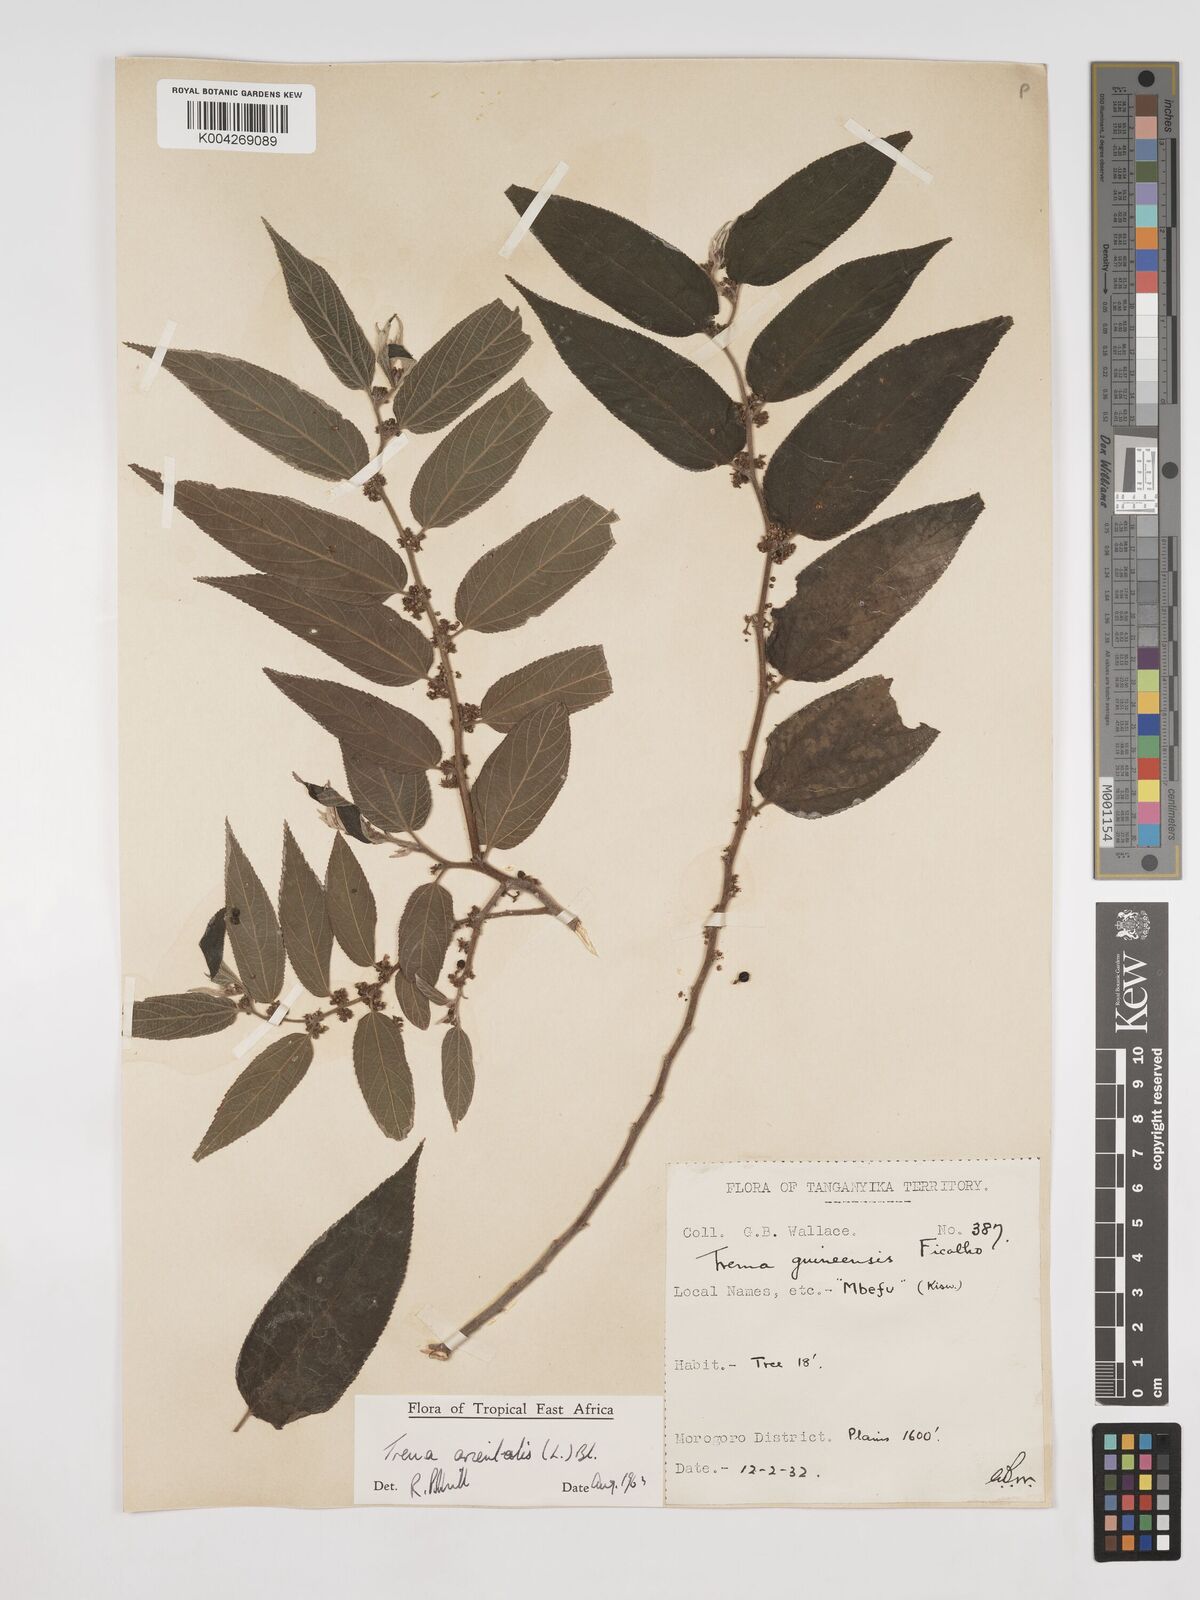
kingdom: Plantae
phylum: Tracheophyta
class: Magnoliopsida
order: Rosales
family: Cannabaceae
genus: Trema
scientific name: Trema orientale
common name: Indian charcoal tree
